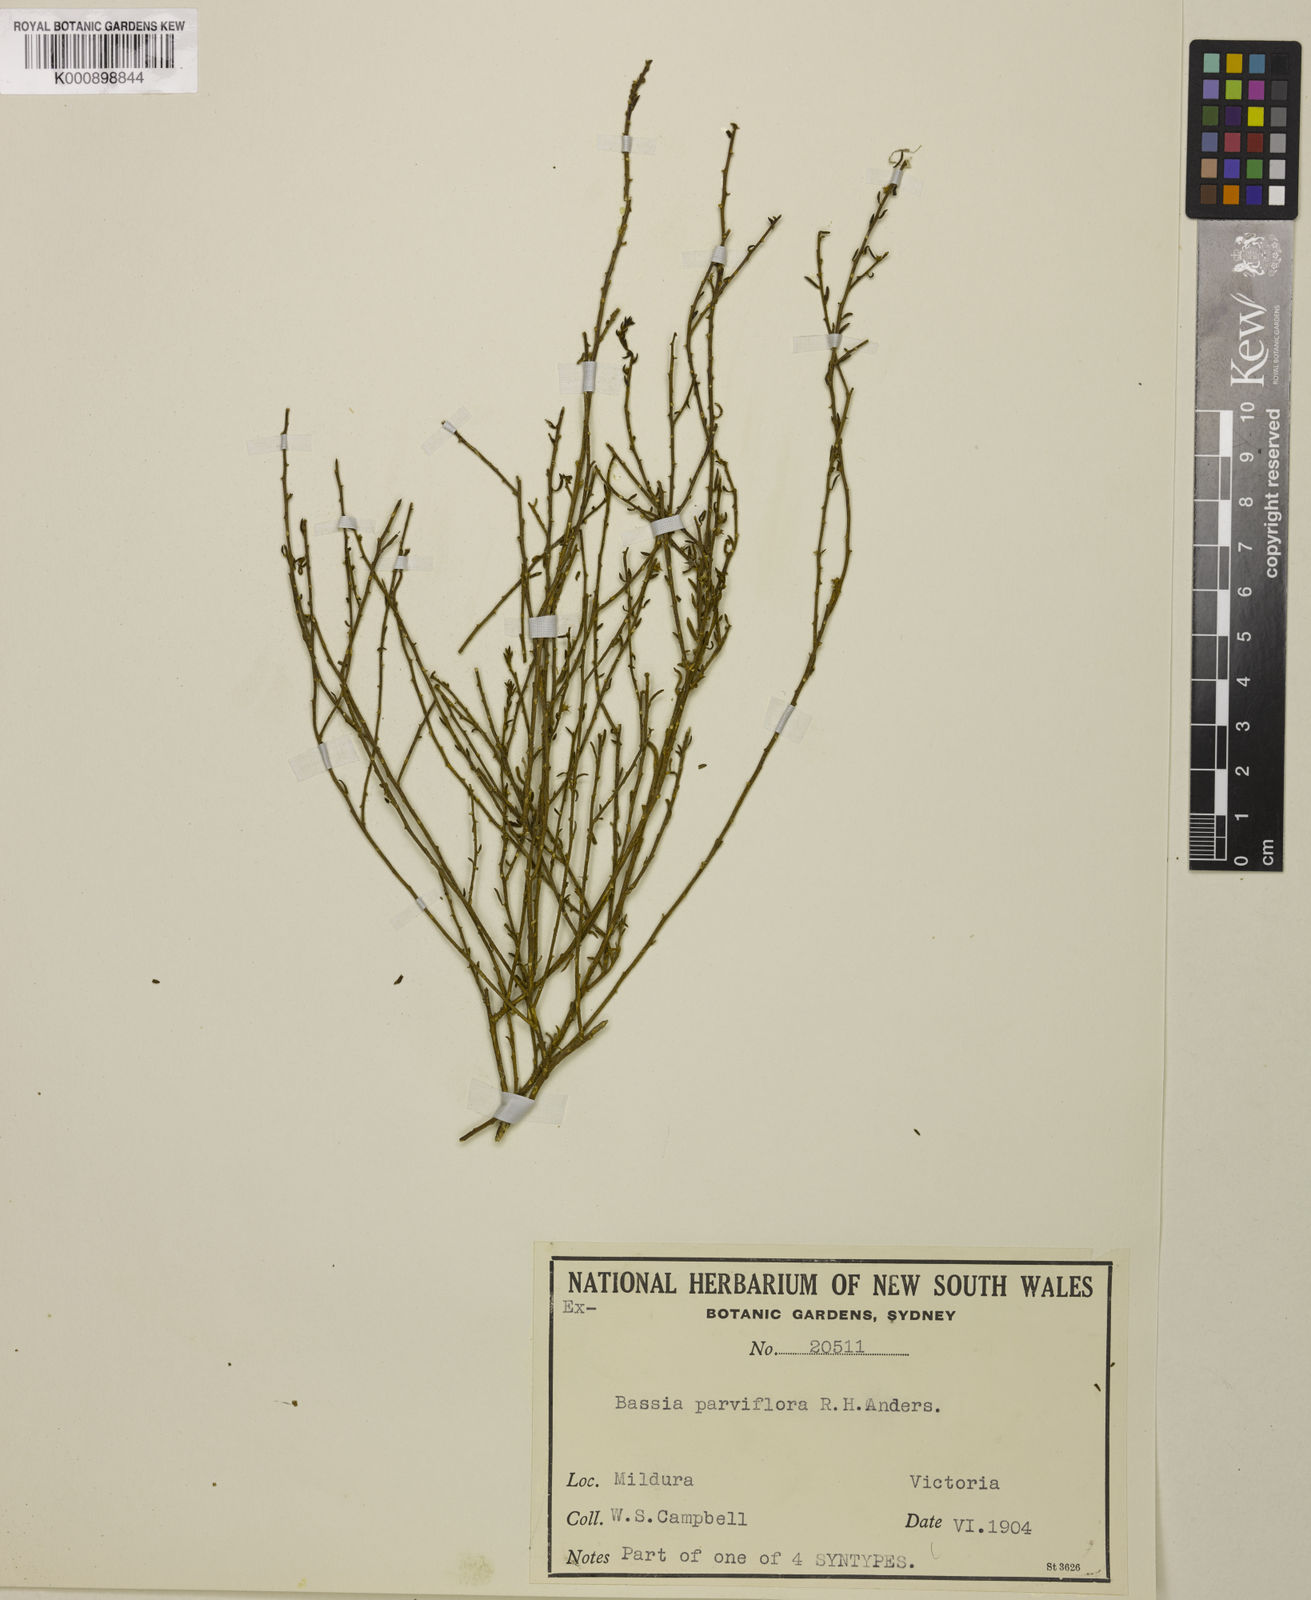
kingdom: Plantae
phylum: Tracheophyta
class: Magnoliopsida
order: Caryophyllales
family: Amaranthaceae
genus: Sclerolaena
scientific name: Sclerolaena parviflora
